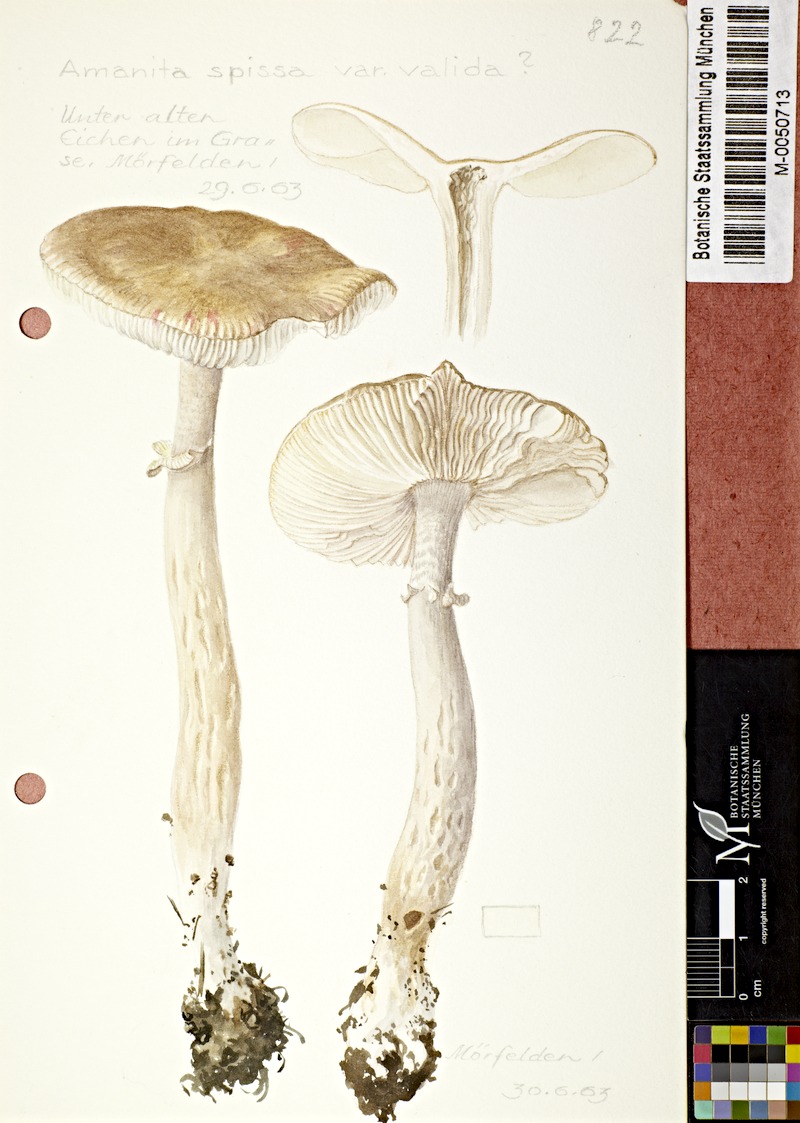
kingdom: Fungi
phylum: Basidiomycota
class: Agaricomycetes
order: Agaricales
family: Amanitaceae
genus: Amanita
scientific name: Amanita excelsa
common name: European false blusher
